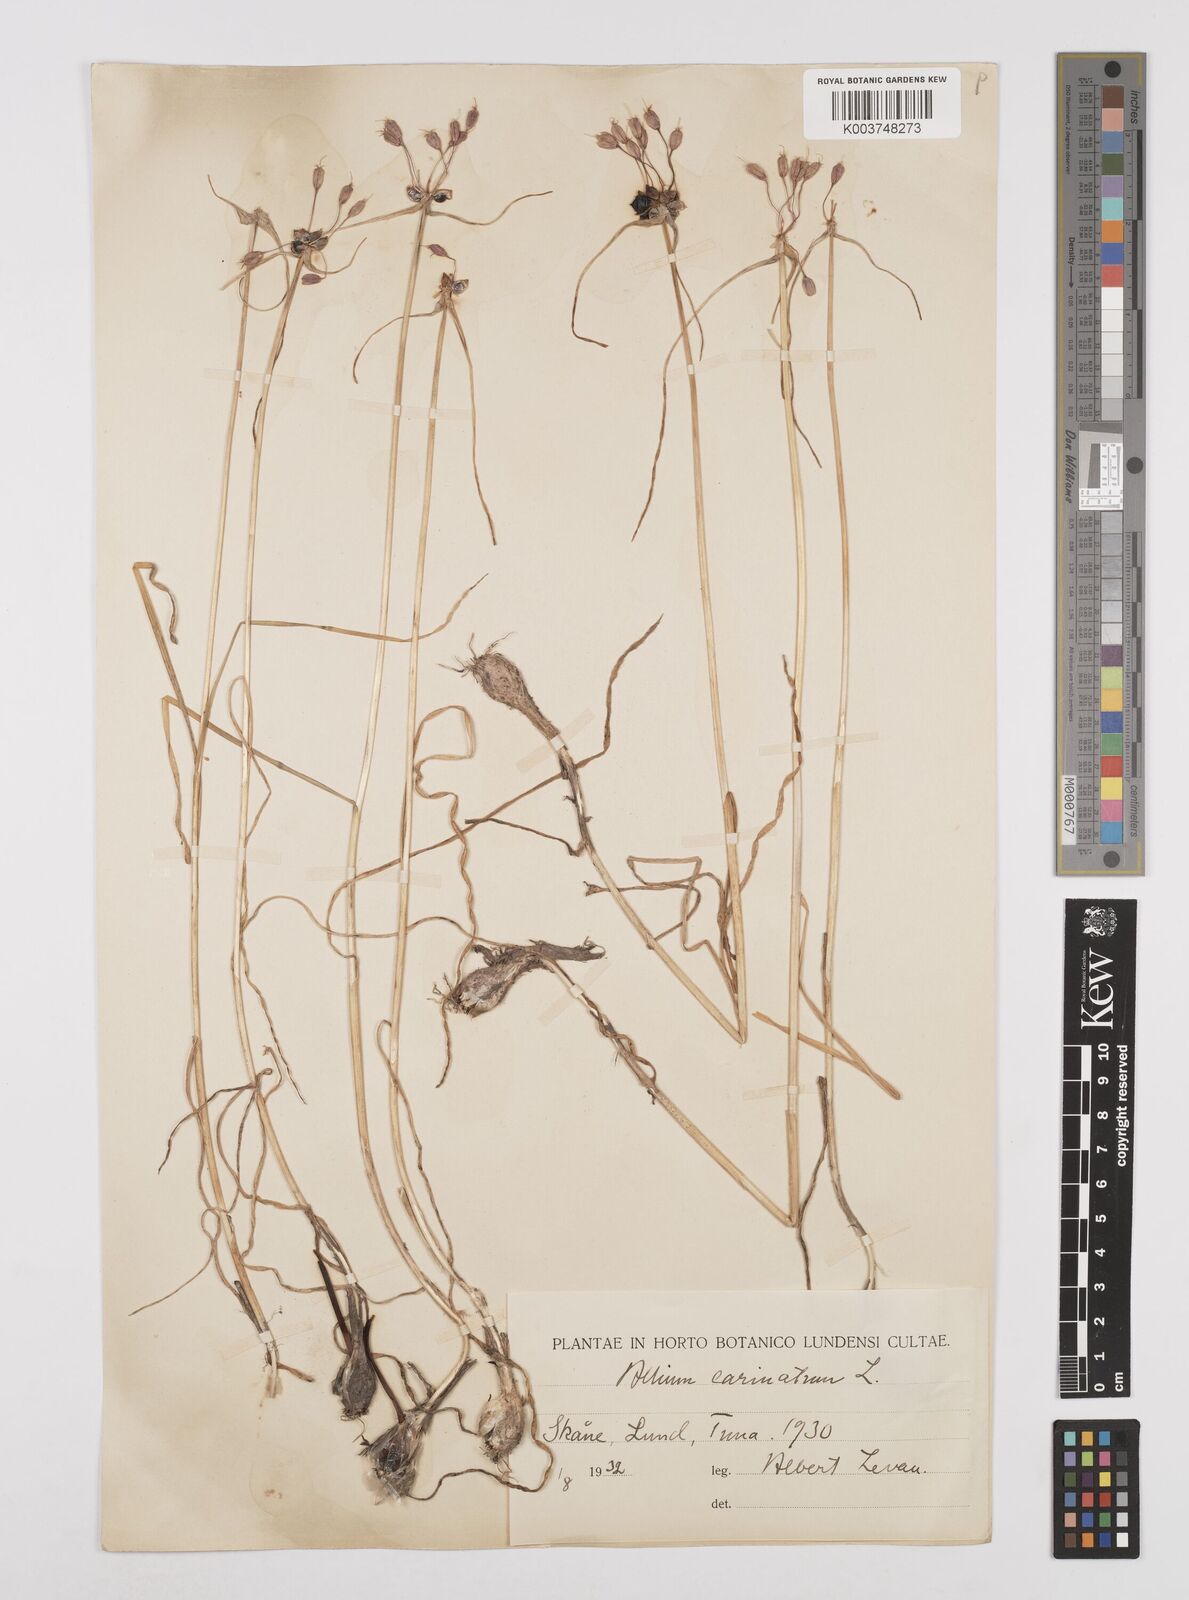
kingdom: Plantae
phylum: Tracheophyta
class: Liliopsida
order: Asparagales
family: Amaryllidaceae
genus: Allium
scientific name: Allium carinatum
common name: Keeled garlic
